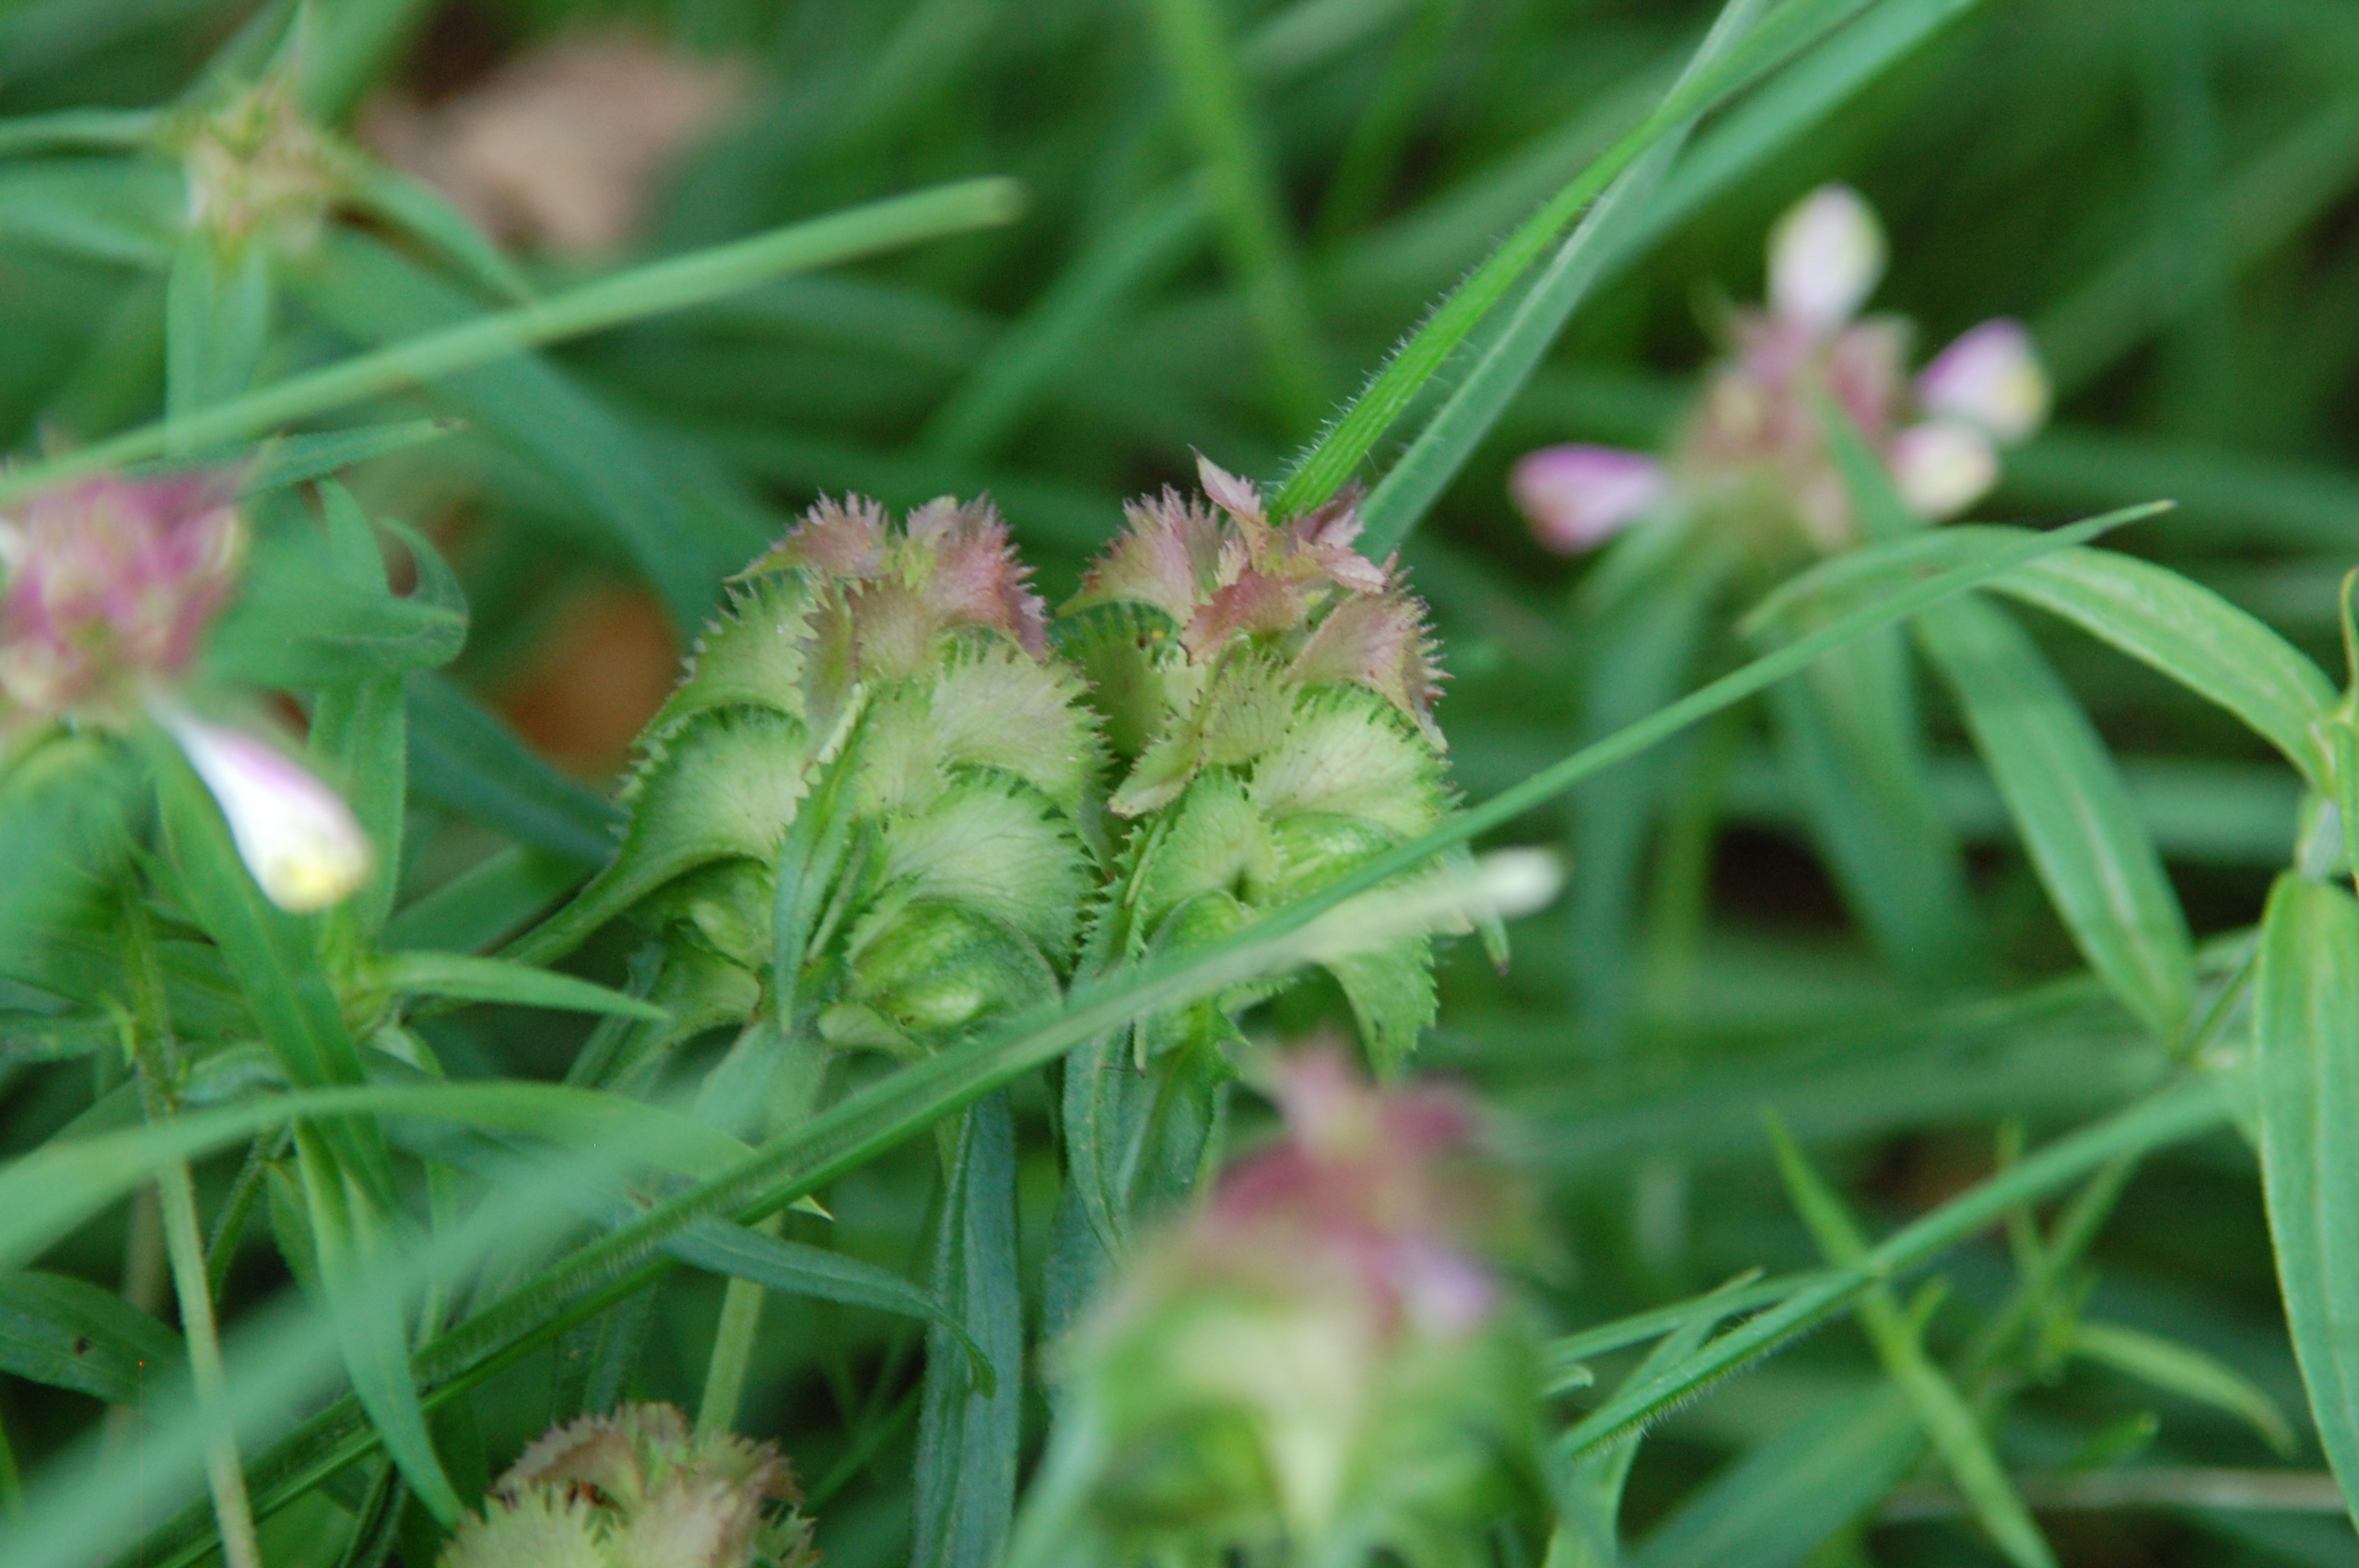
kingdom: Plantae
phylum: Tracheophyta
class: Magnoliopsida
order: Lamiales
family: Orobanchaceae
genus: Melampyrum
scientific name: Melampyrum cristatum
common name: Kantet kohvede
